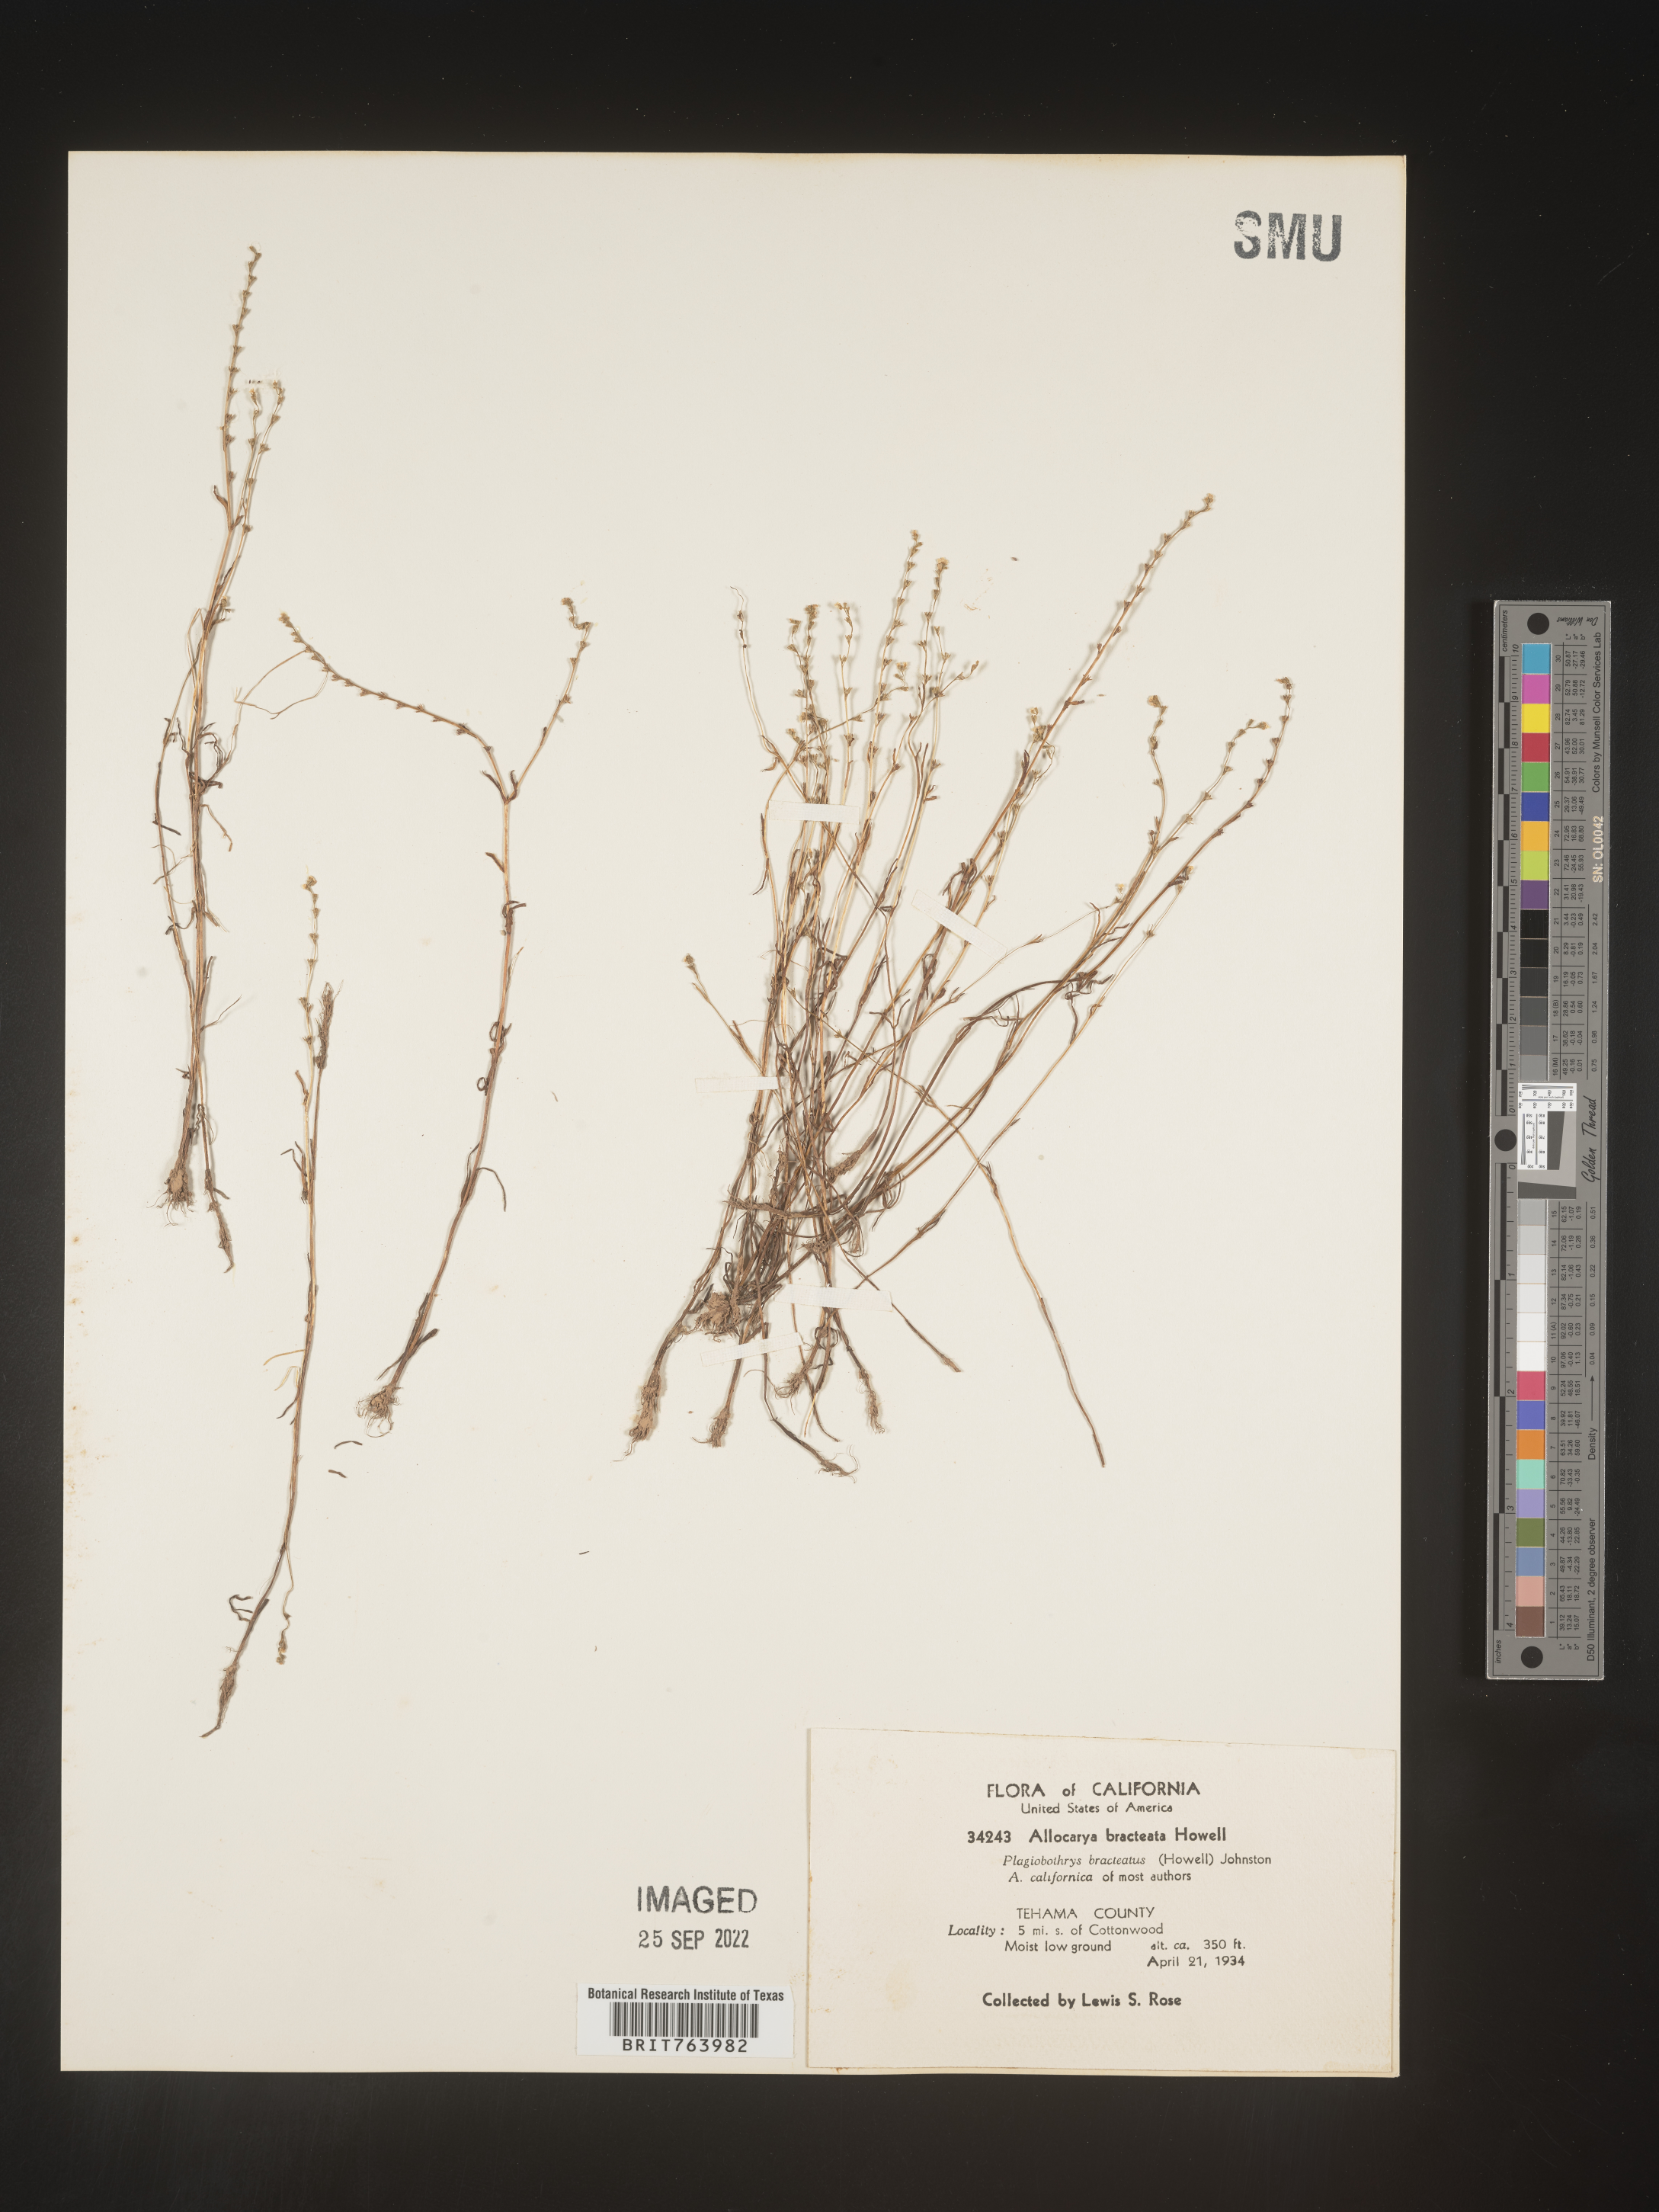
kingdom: Plantae
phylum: Tracheophyta
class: Magnoliopsida
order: Boraginales
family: Boraginaceae
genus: Plagiobothrys
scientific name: Plagiobothrys
